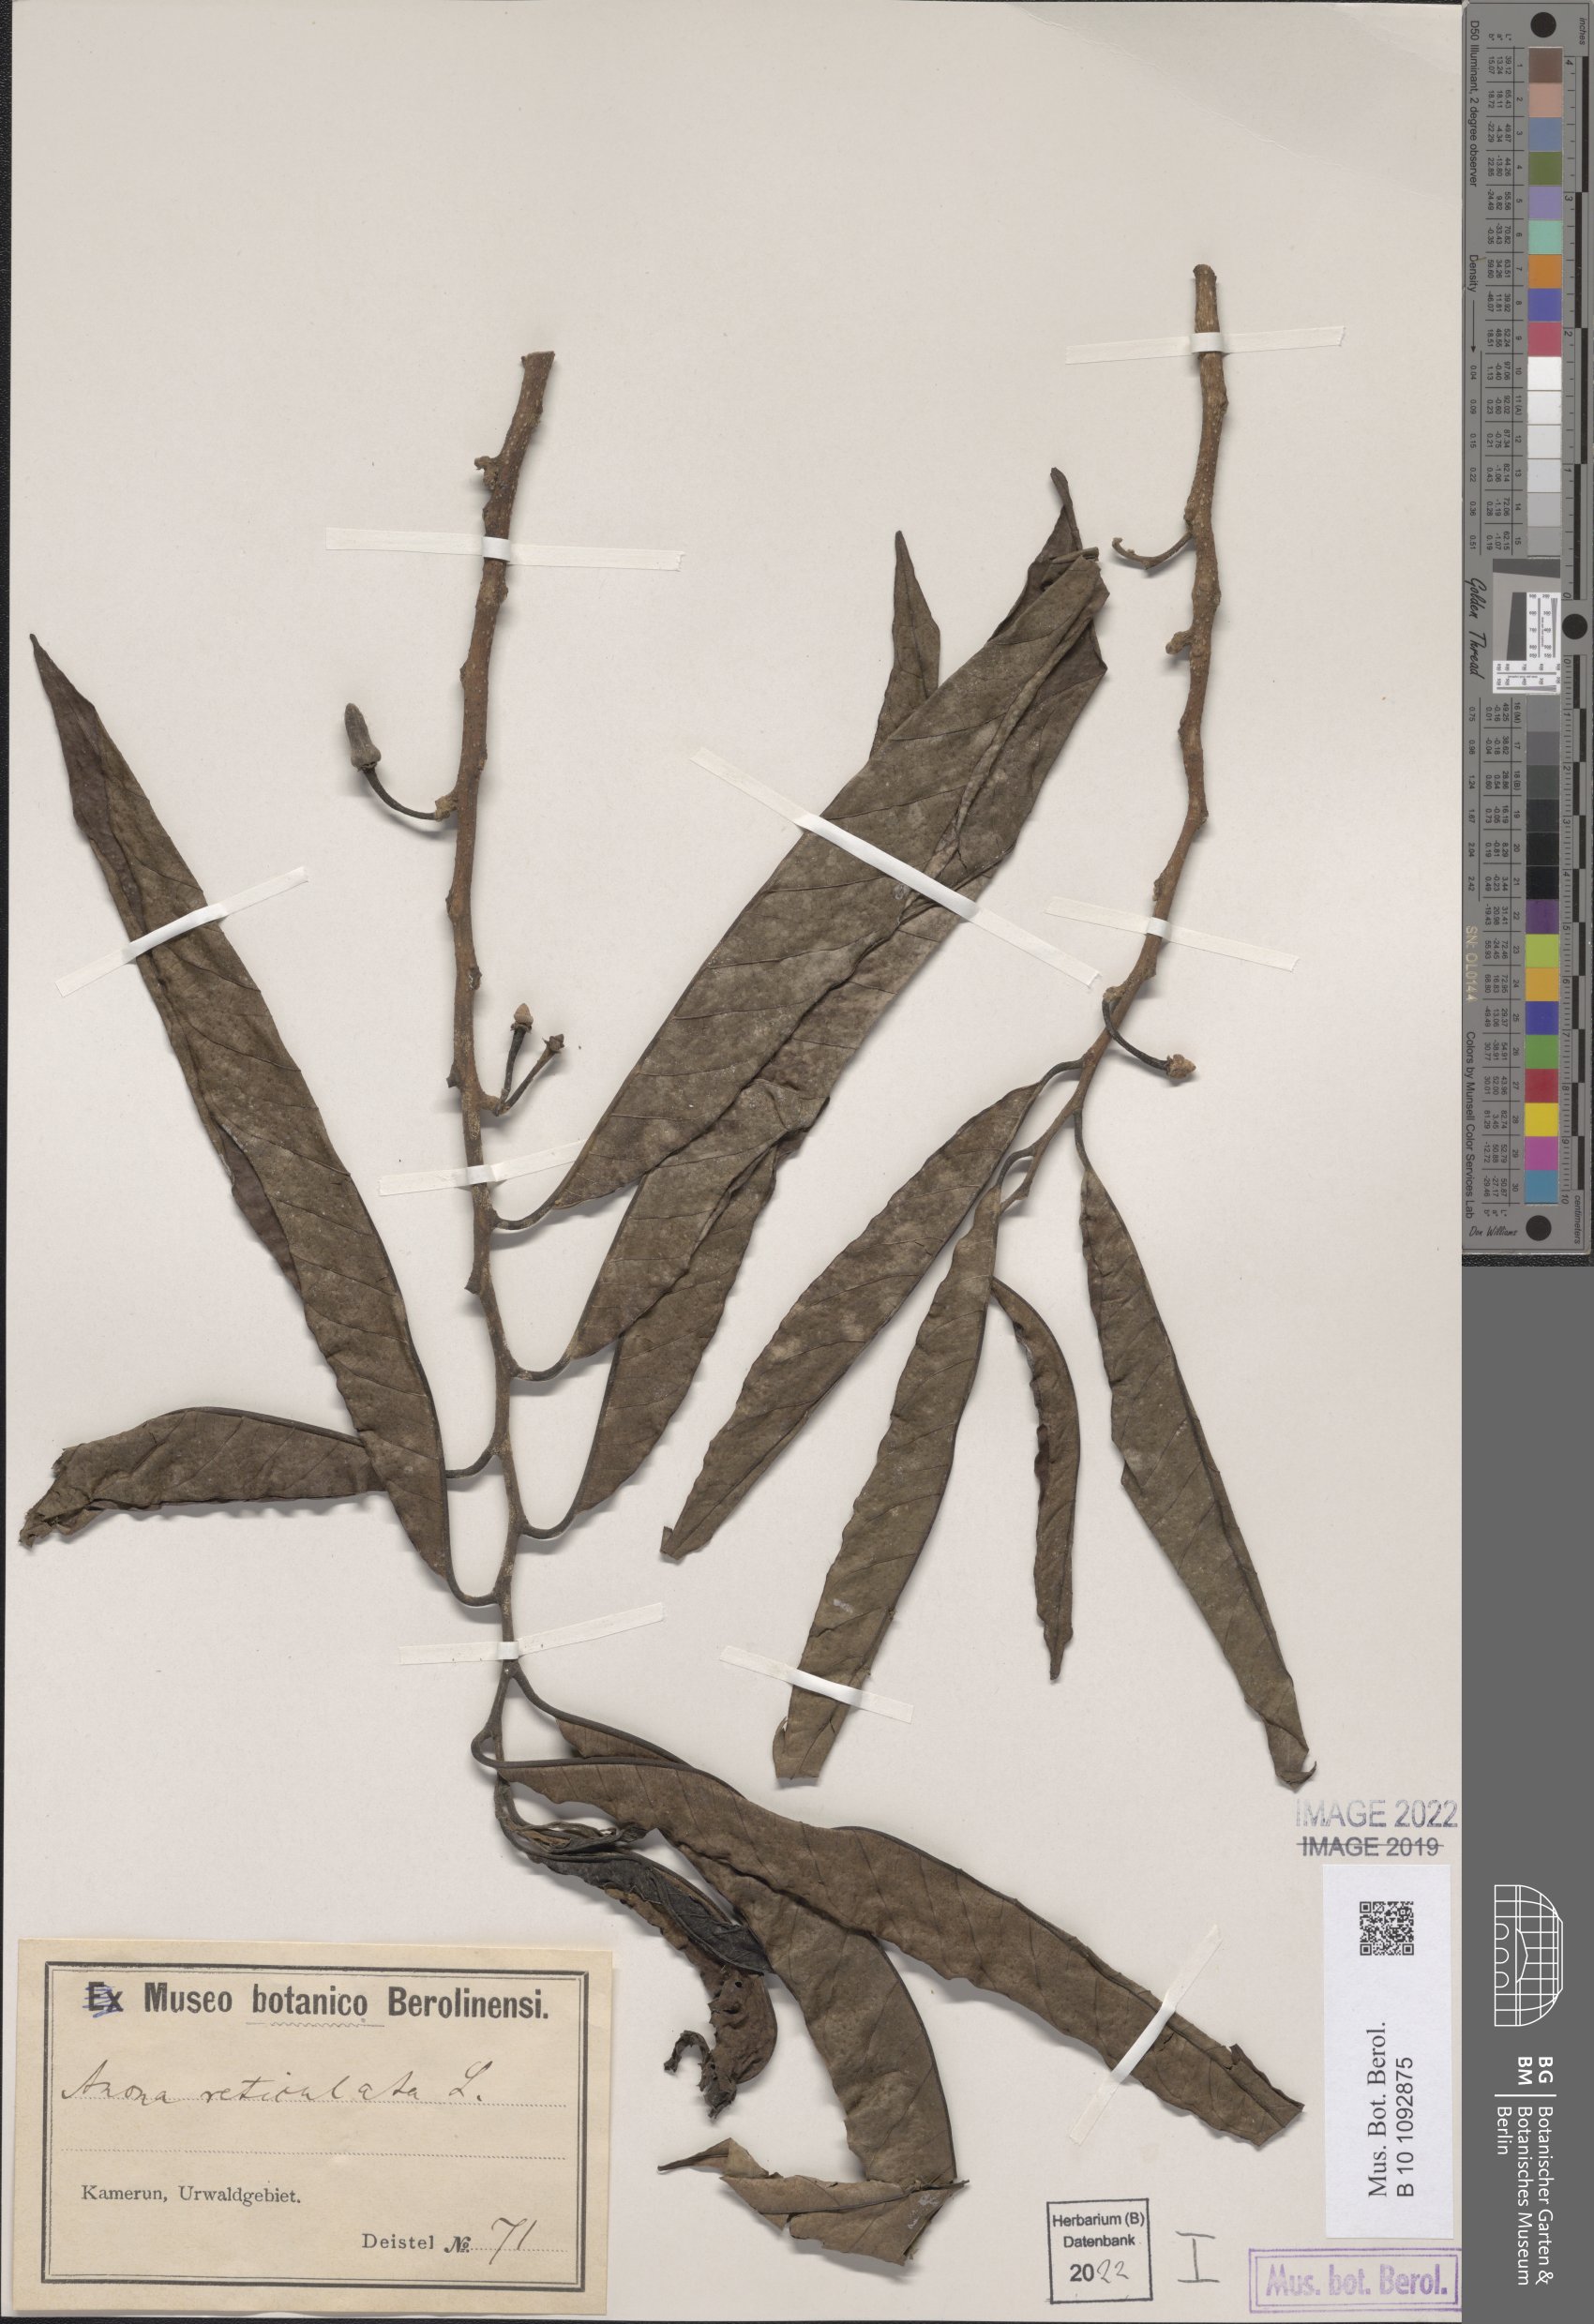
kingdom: Plantae
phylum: Tracheophyta
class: Magnoliopsida
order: Magnoliales
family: Annonaceae
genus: Annona
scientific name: Annona reticulata
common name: Custard apple
